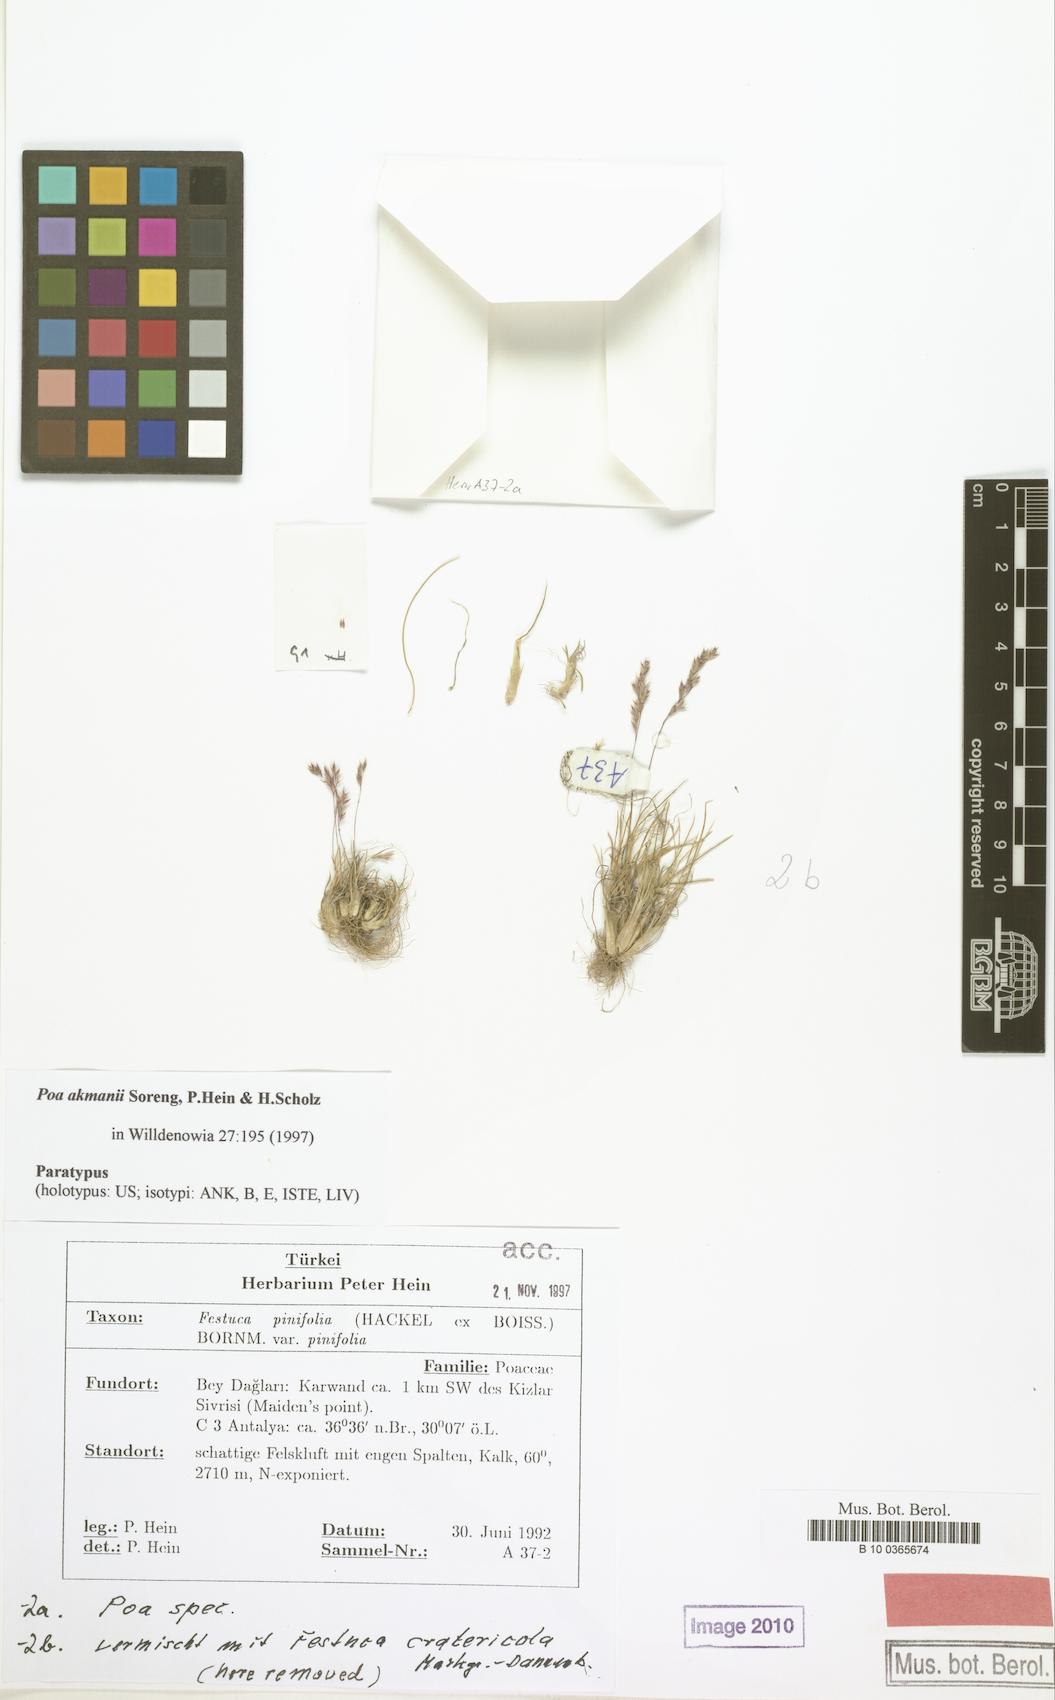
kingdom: Plantae
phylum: Tracheophyta
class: Liliopsida
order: Poales
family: Poaceae
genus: Poa
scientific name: Poa akmanii
